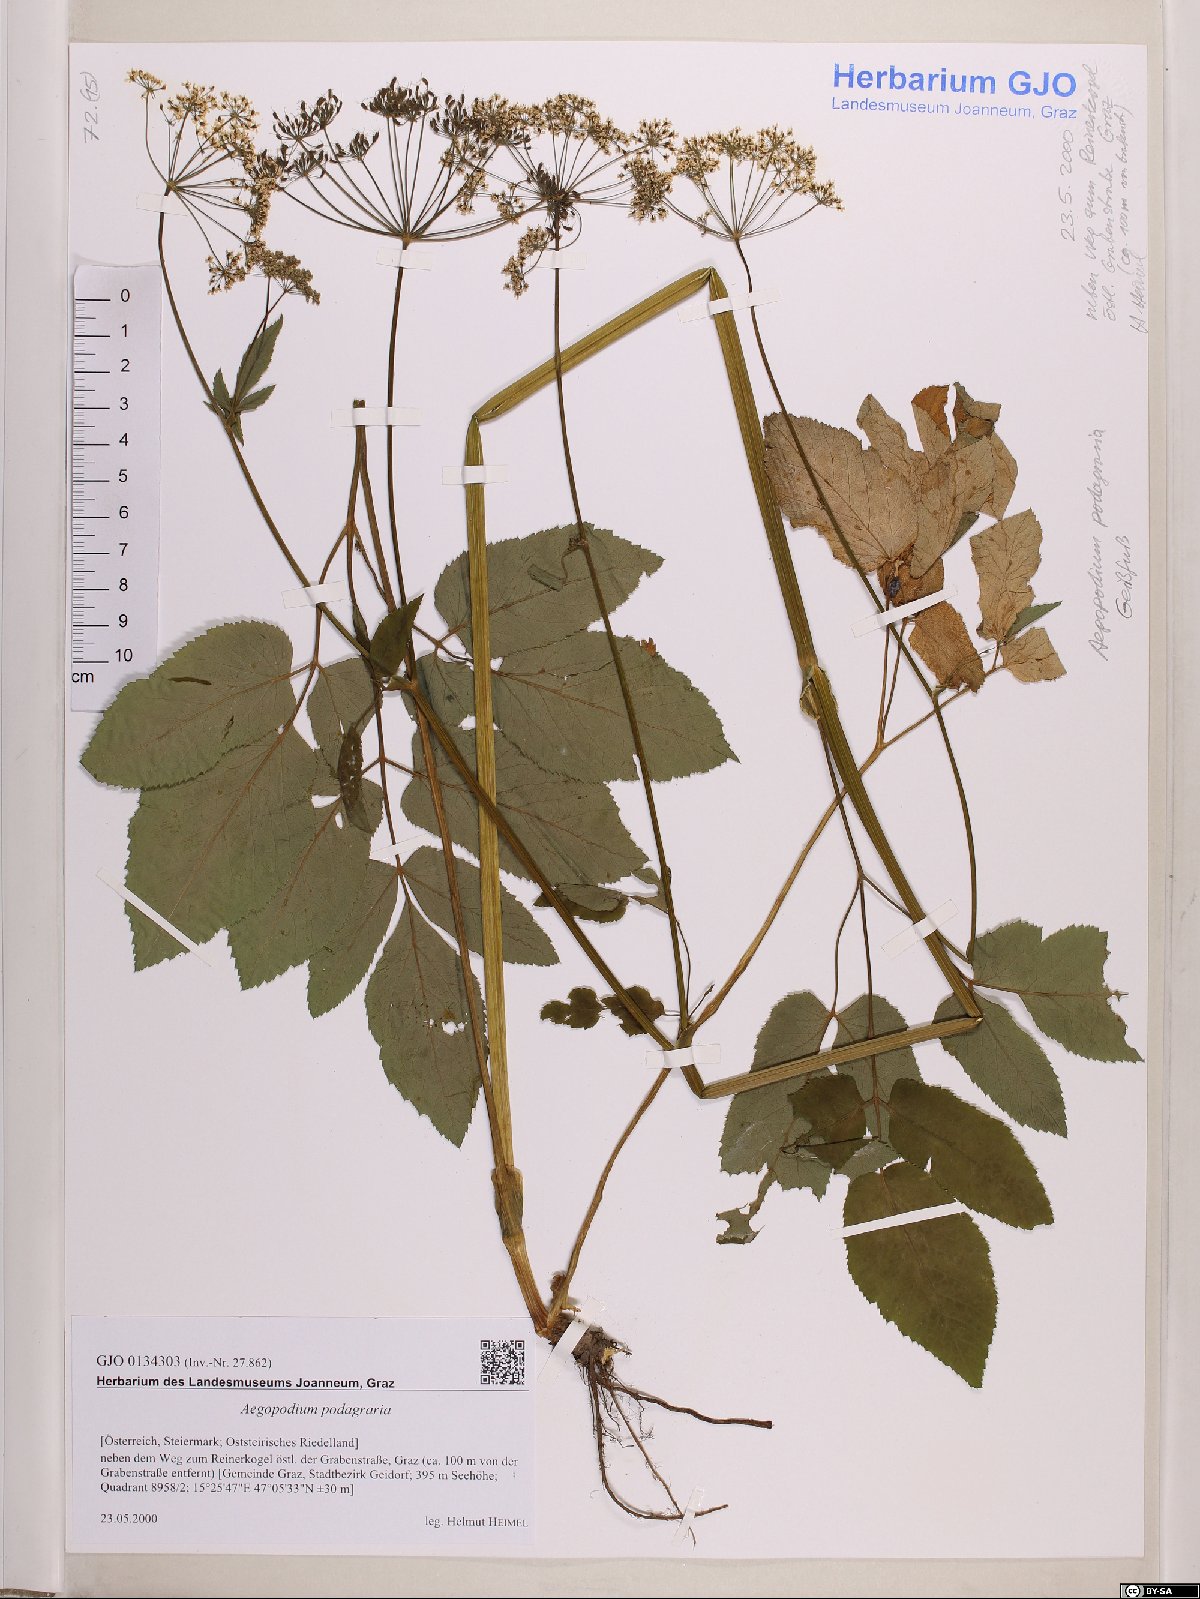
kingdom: Plantae
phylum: Tracheophyta
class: Magnoliopsida
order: Apiales
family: Apiaceae
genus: Aegopodium
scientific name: Aegopodium podagraria
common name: Ground-elder
